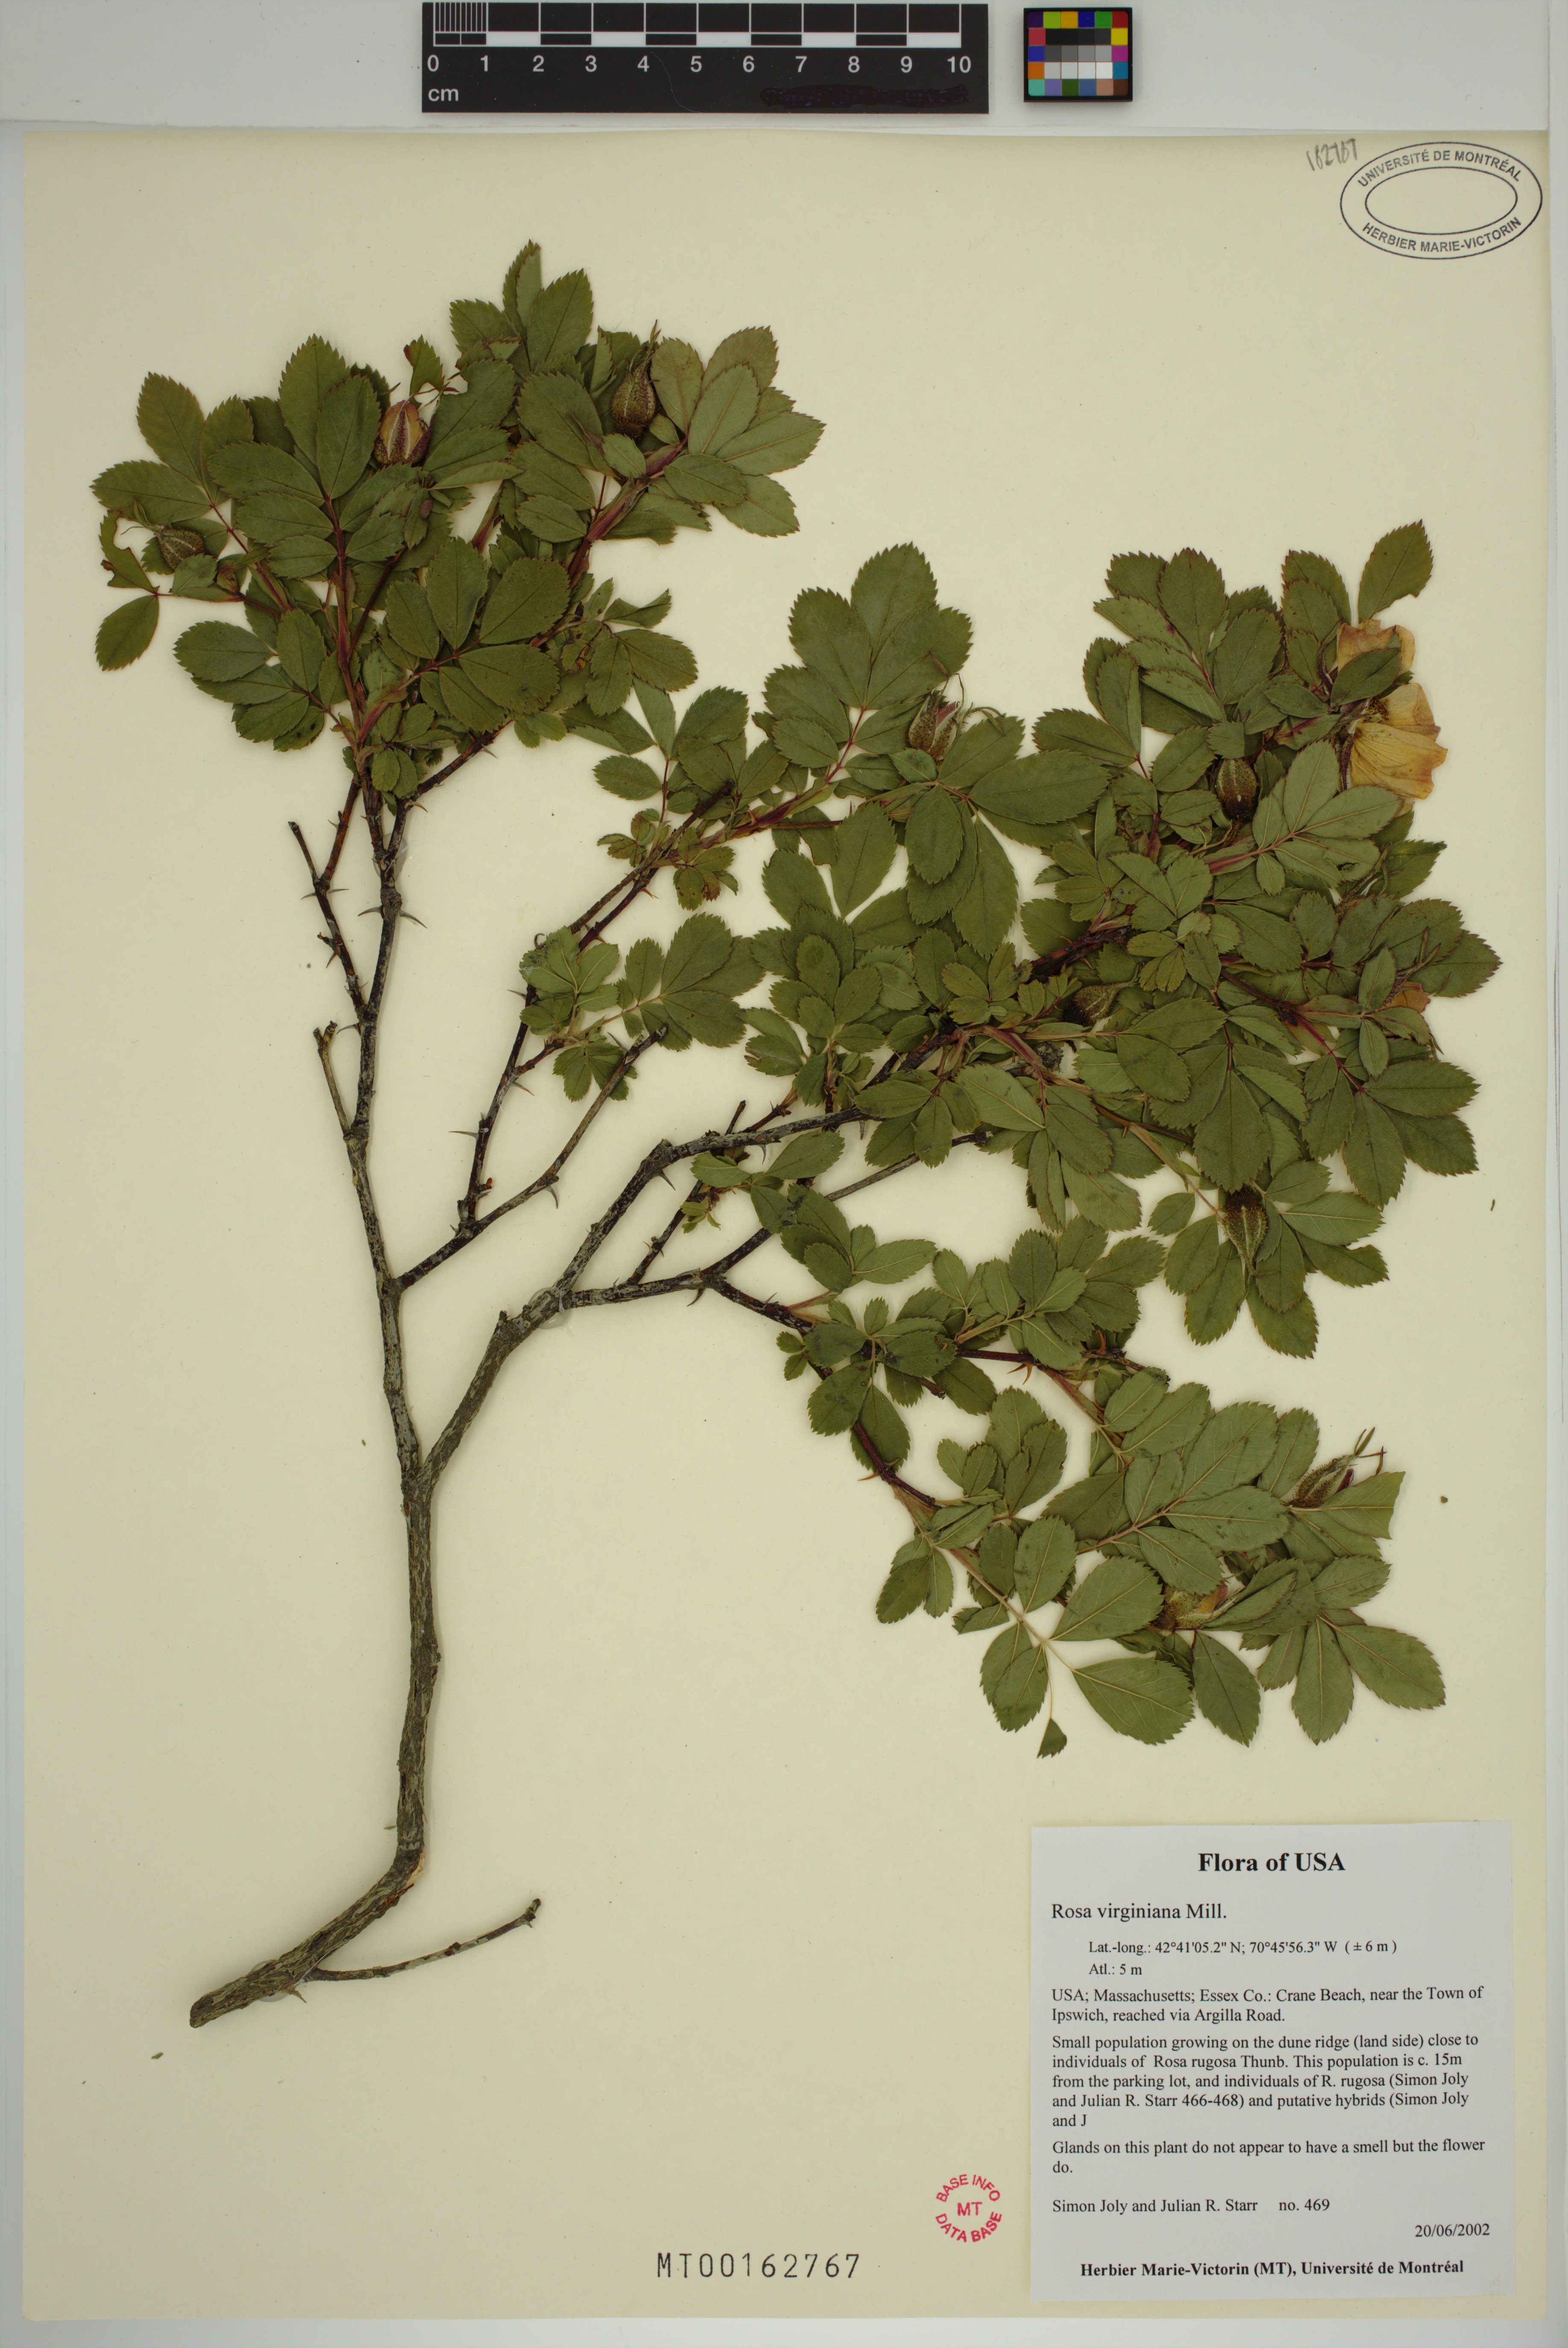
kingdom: Plantae
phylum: Tracheophyta
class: Magnoliopsida
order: Rosales
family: Rosaceae
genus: Rosa
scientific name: Rosa carolina
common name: Pasture rose
